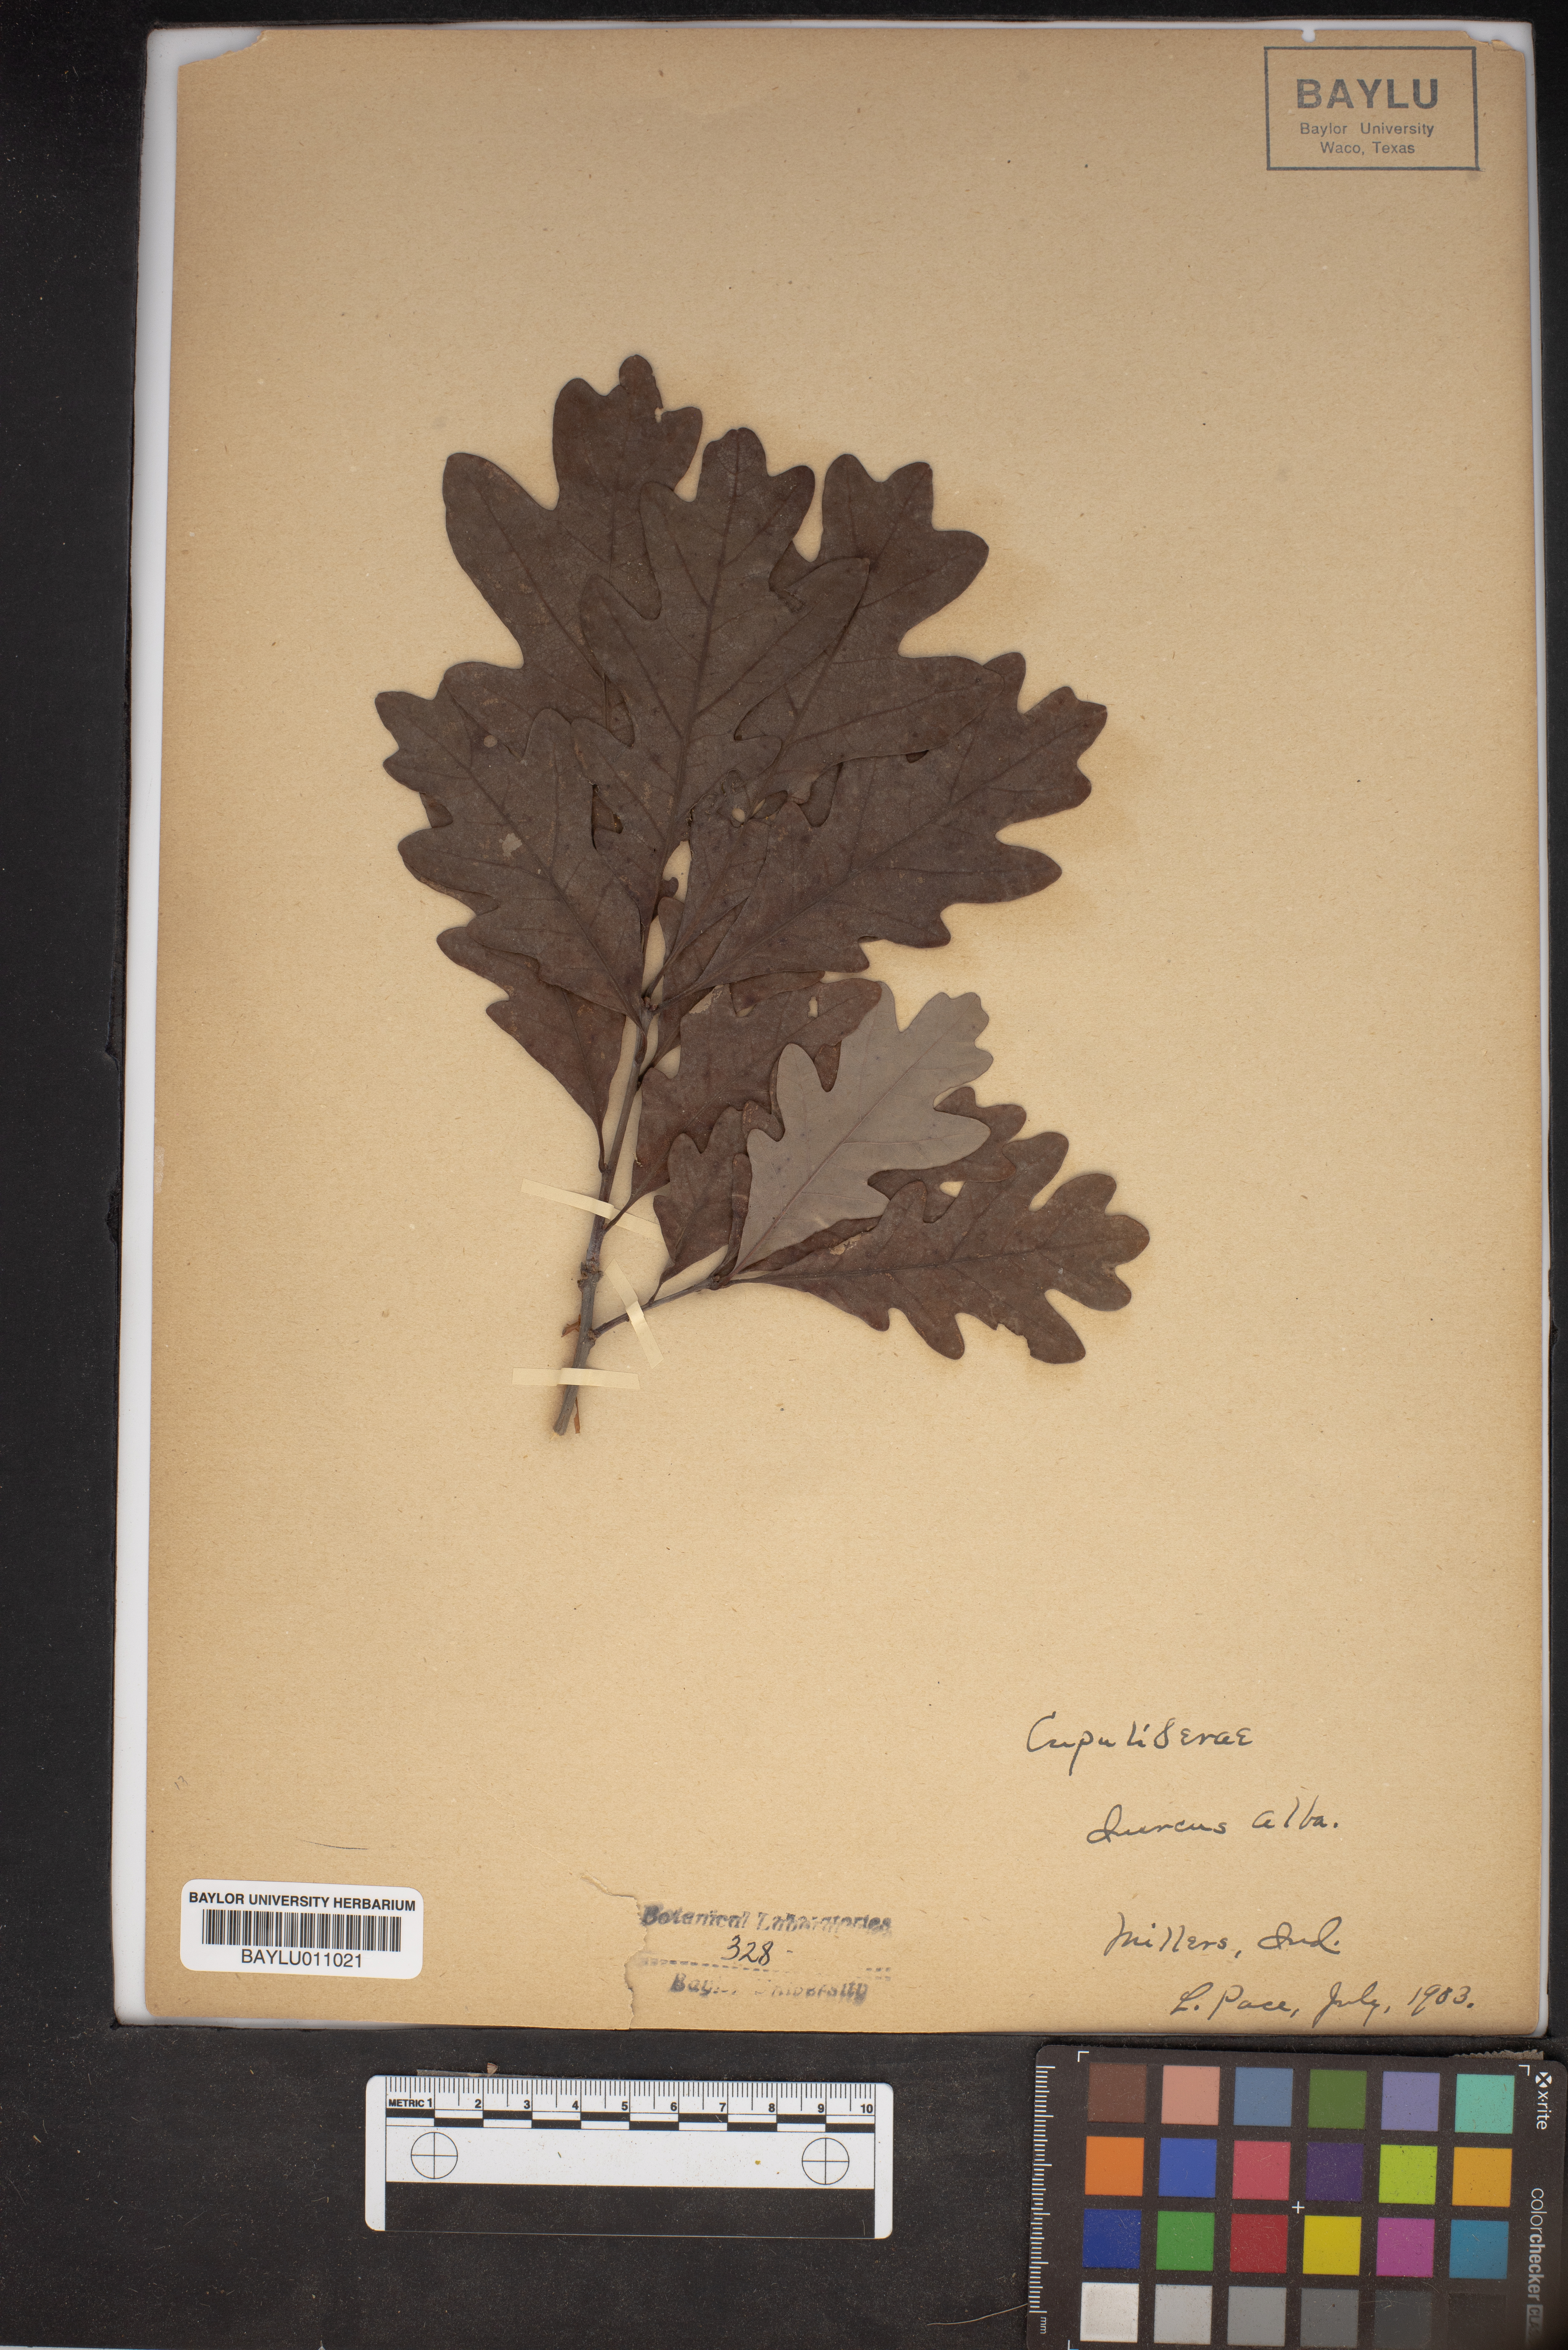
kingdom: Plantae
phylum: Tracheophyta
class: Magnoliopsida
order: Fagales
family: Fagaceae
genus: Quercus
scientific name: Quercus alba
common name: White oak
